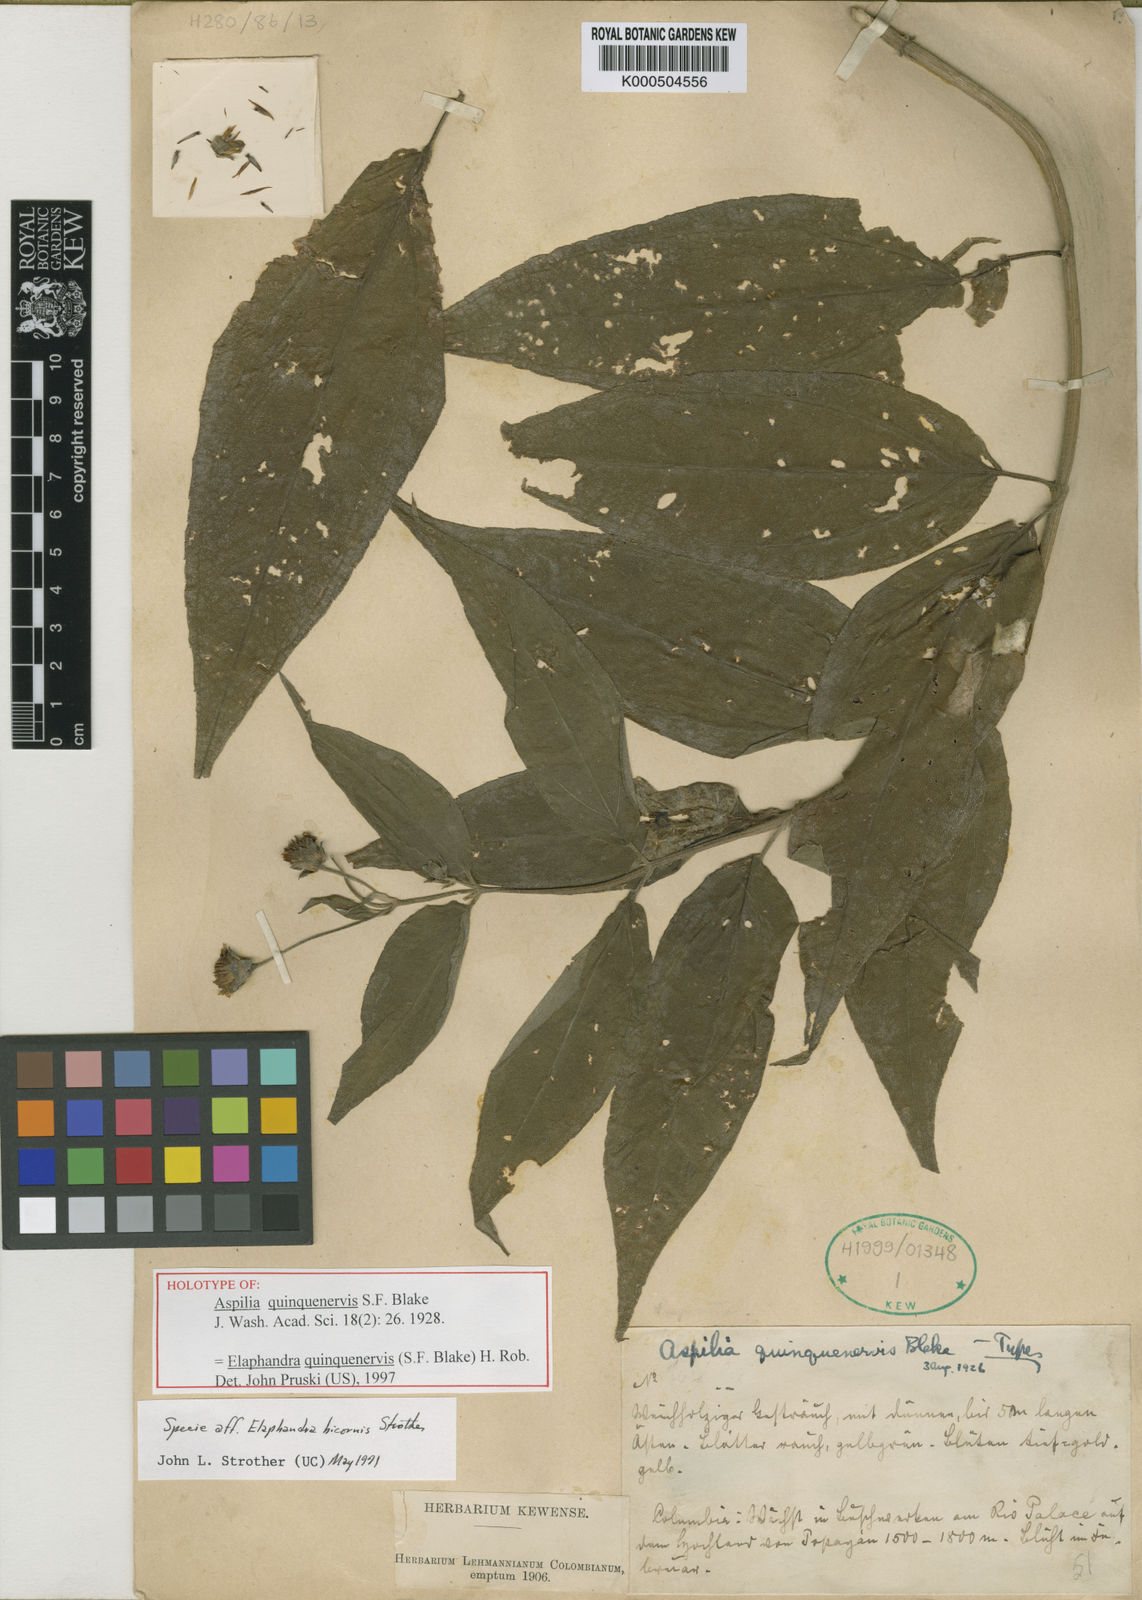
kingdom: Plantae
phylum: Tracheophyta
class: Magnoliopsida
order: Asterales
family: Asteraceae
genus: Elaphandra
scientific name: Elaphandra quinquenervis
